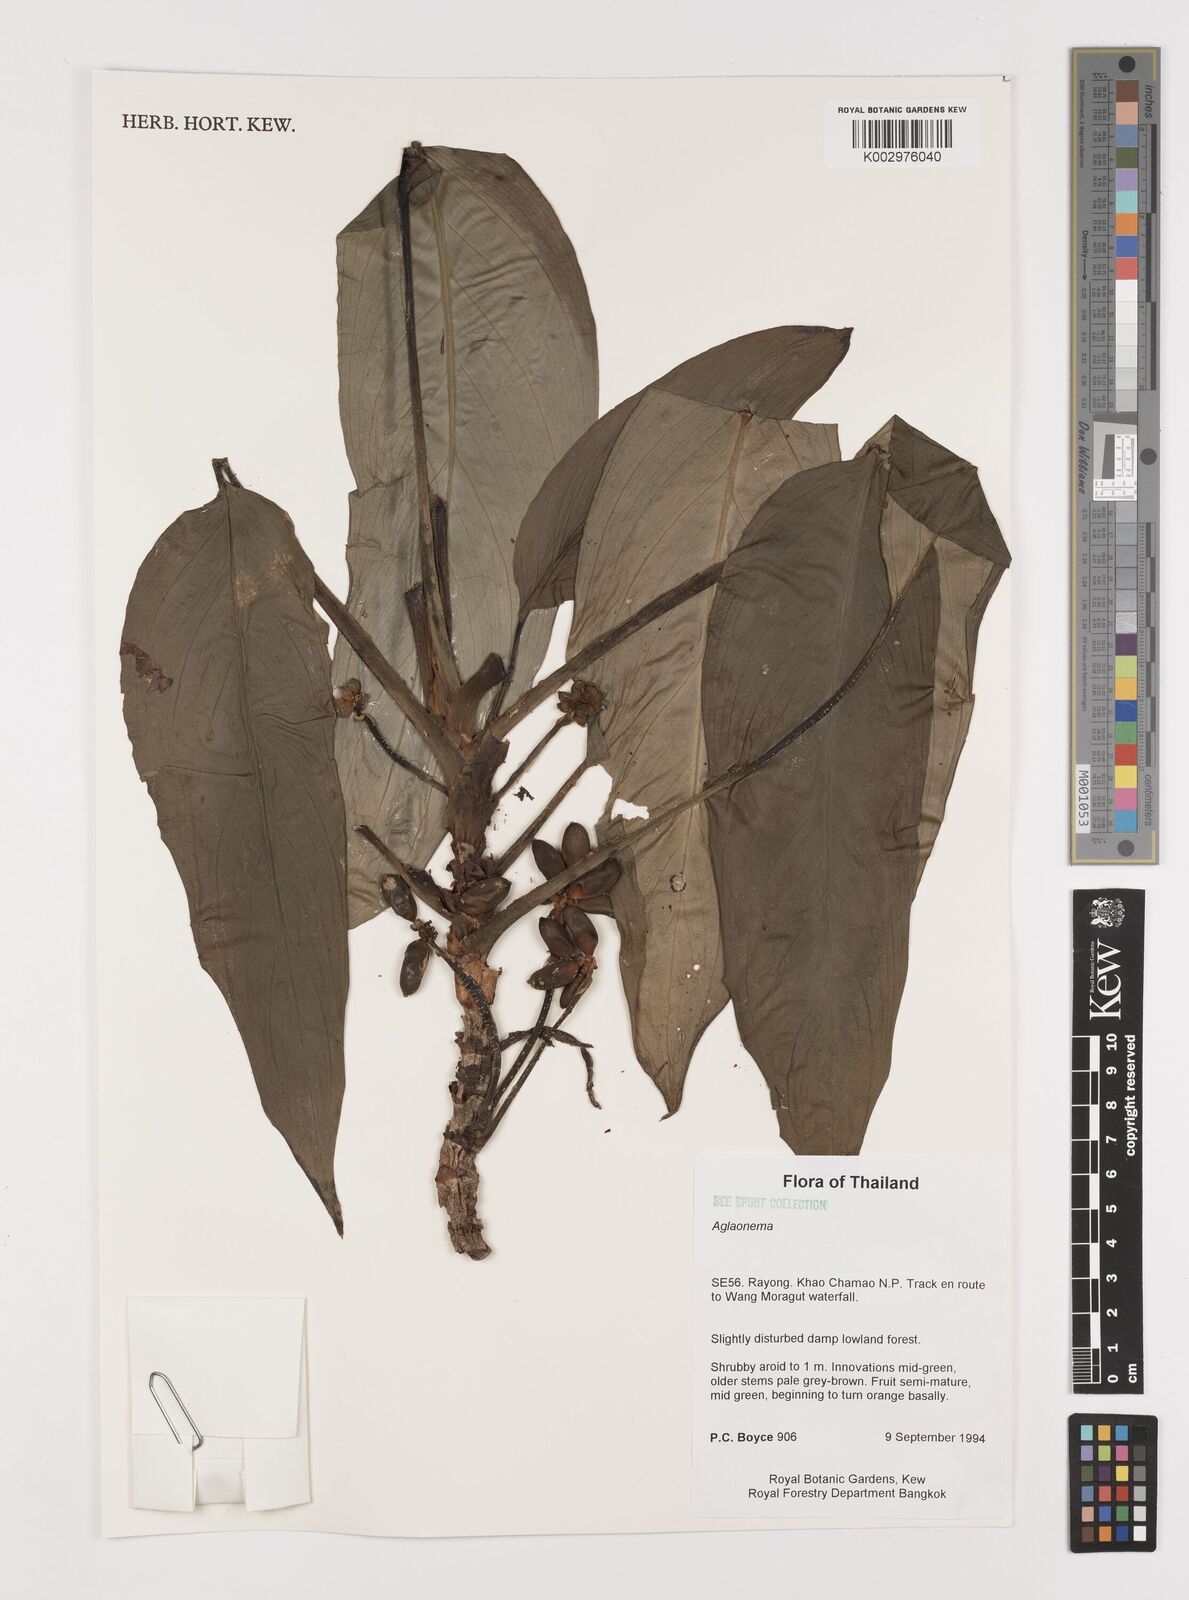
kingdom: Plantae
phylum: Tracheophyta
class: Liliopsida
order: Alismatales
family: Araceae
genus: Aglaonema
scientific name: Aglaonema simplex
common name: Malayan-sword
